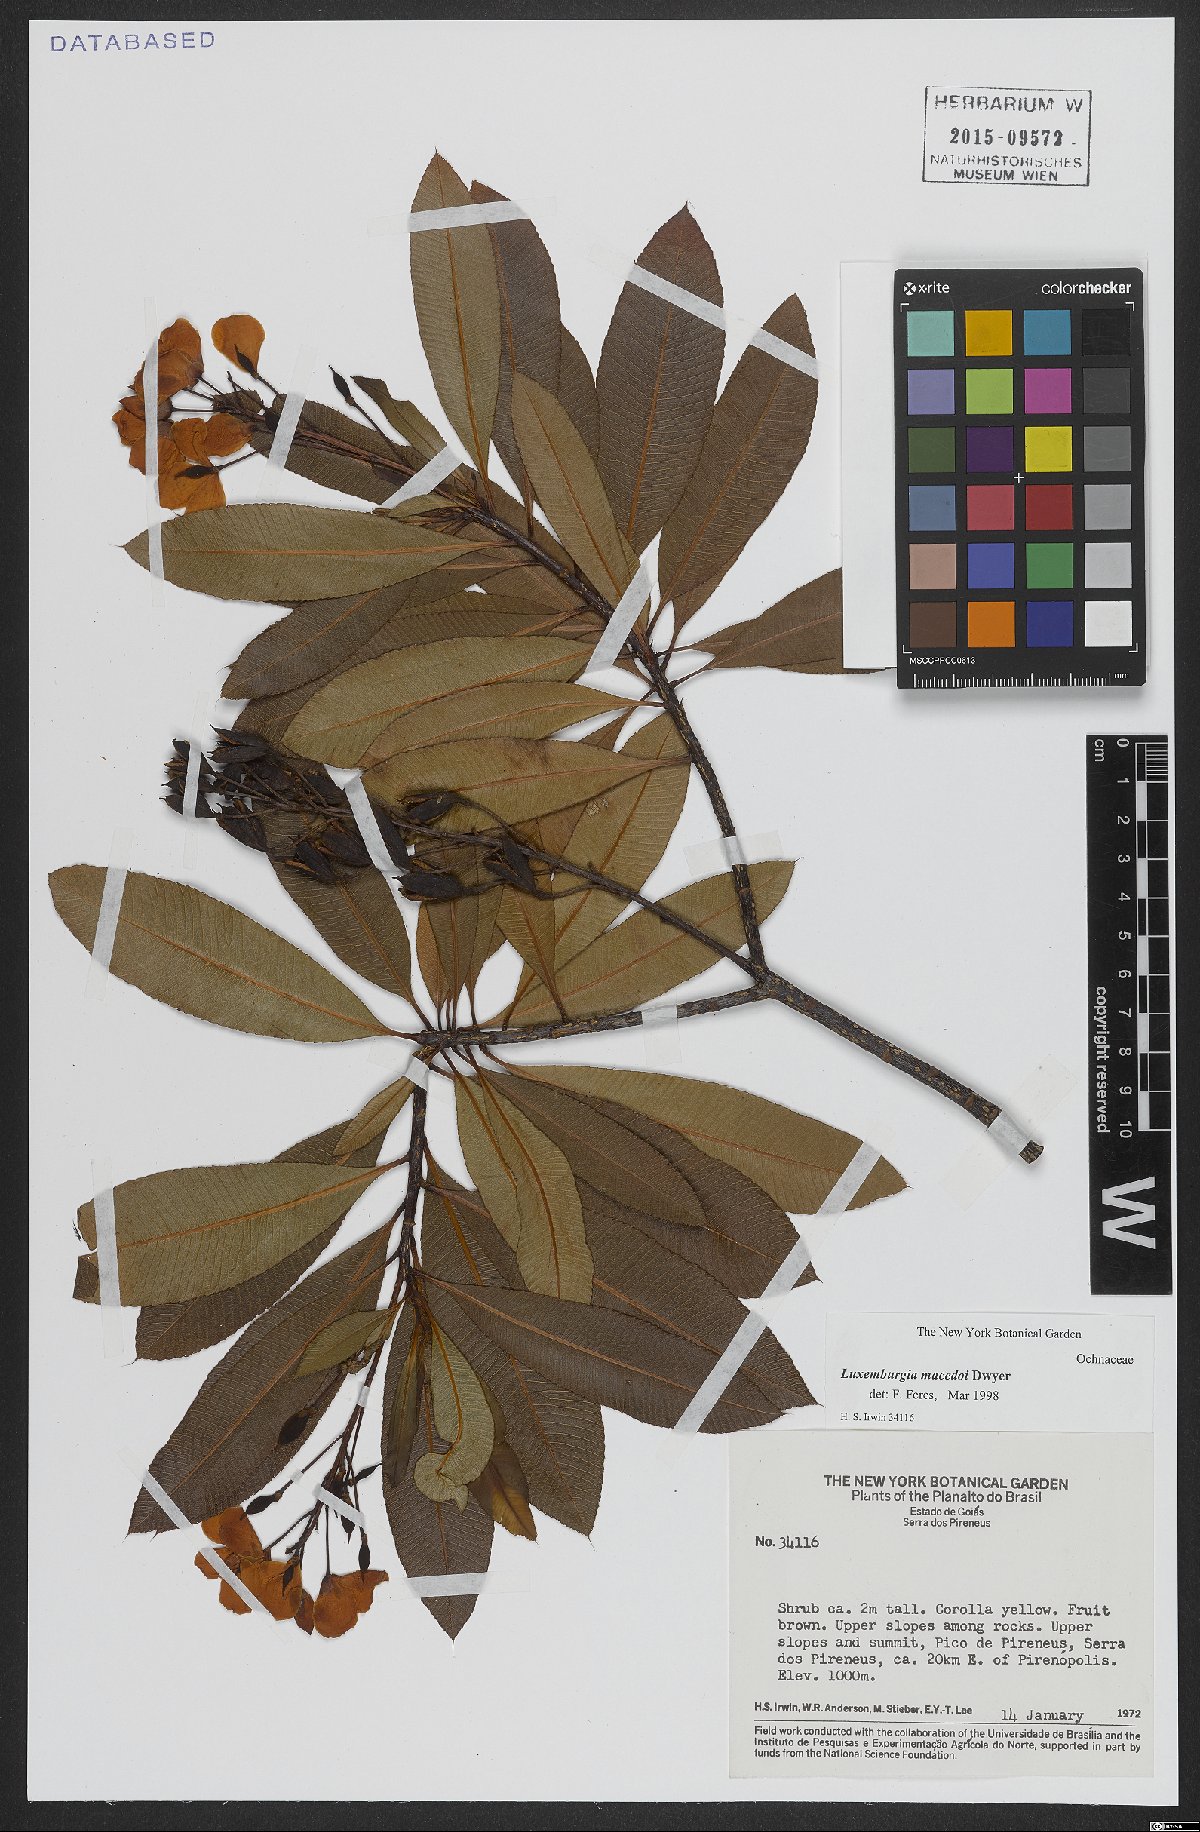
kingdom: Plantae
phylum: Tracheophyta
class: Magnoliopsida
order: Malpighiales
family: Ochnaceae
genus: Luxemburgia
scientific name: Luxemburgia macedoi
